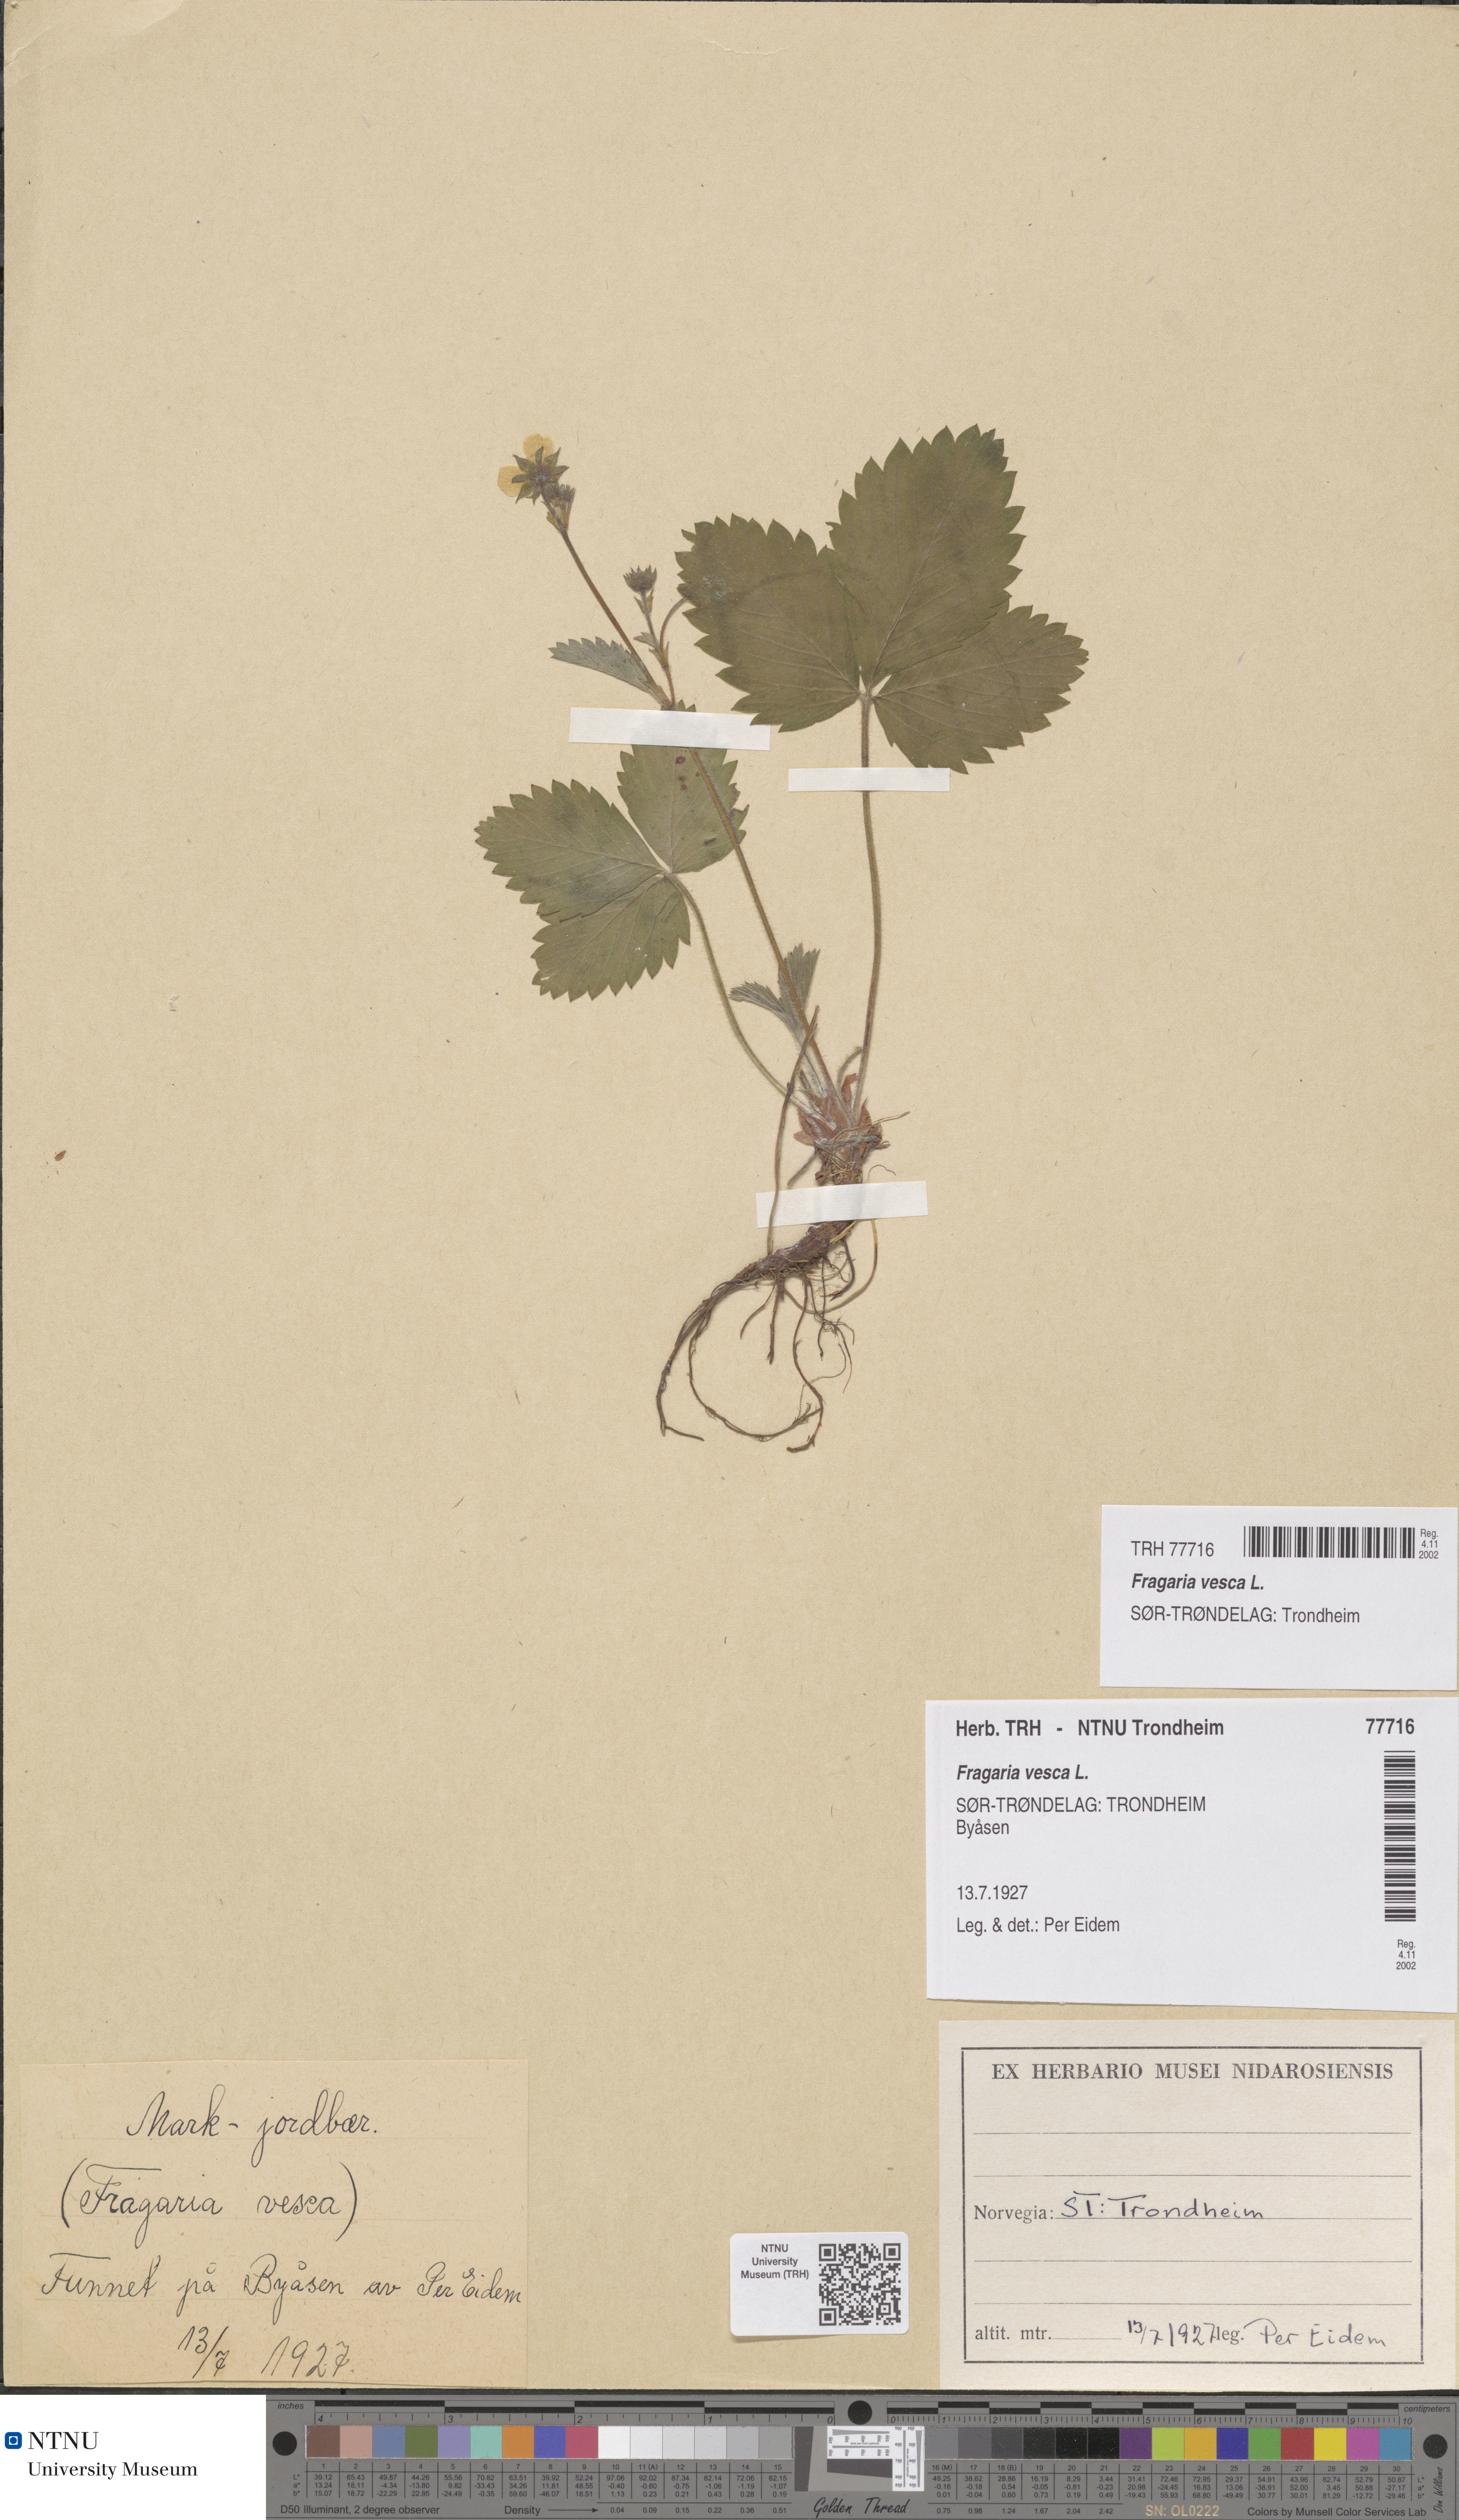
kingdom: Plantae
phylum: Tracheophyta
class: Magnoliopsida
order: Rosales
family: Rosaceae
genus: Fragaria
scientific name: Fragaria vesca
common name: Wild strawberry
